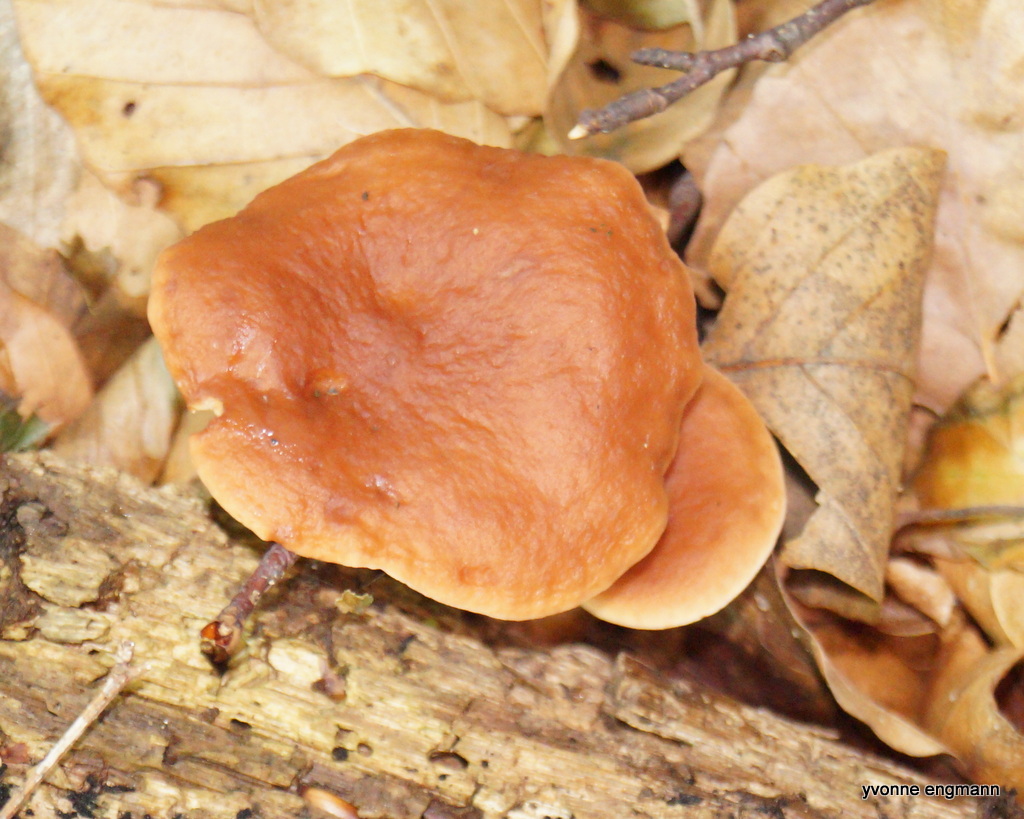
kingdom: Fungi
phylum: Basidiomycota
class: Agaricomycetes
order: Russulales
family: Russulaceae
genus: Lactarius
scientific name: Lactarius subdulcis
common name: sødlig mælkehat
